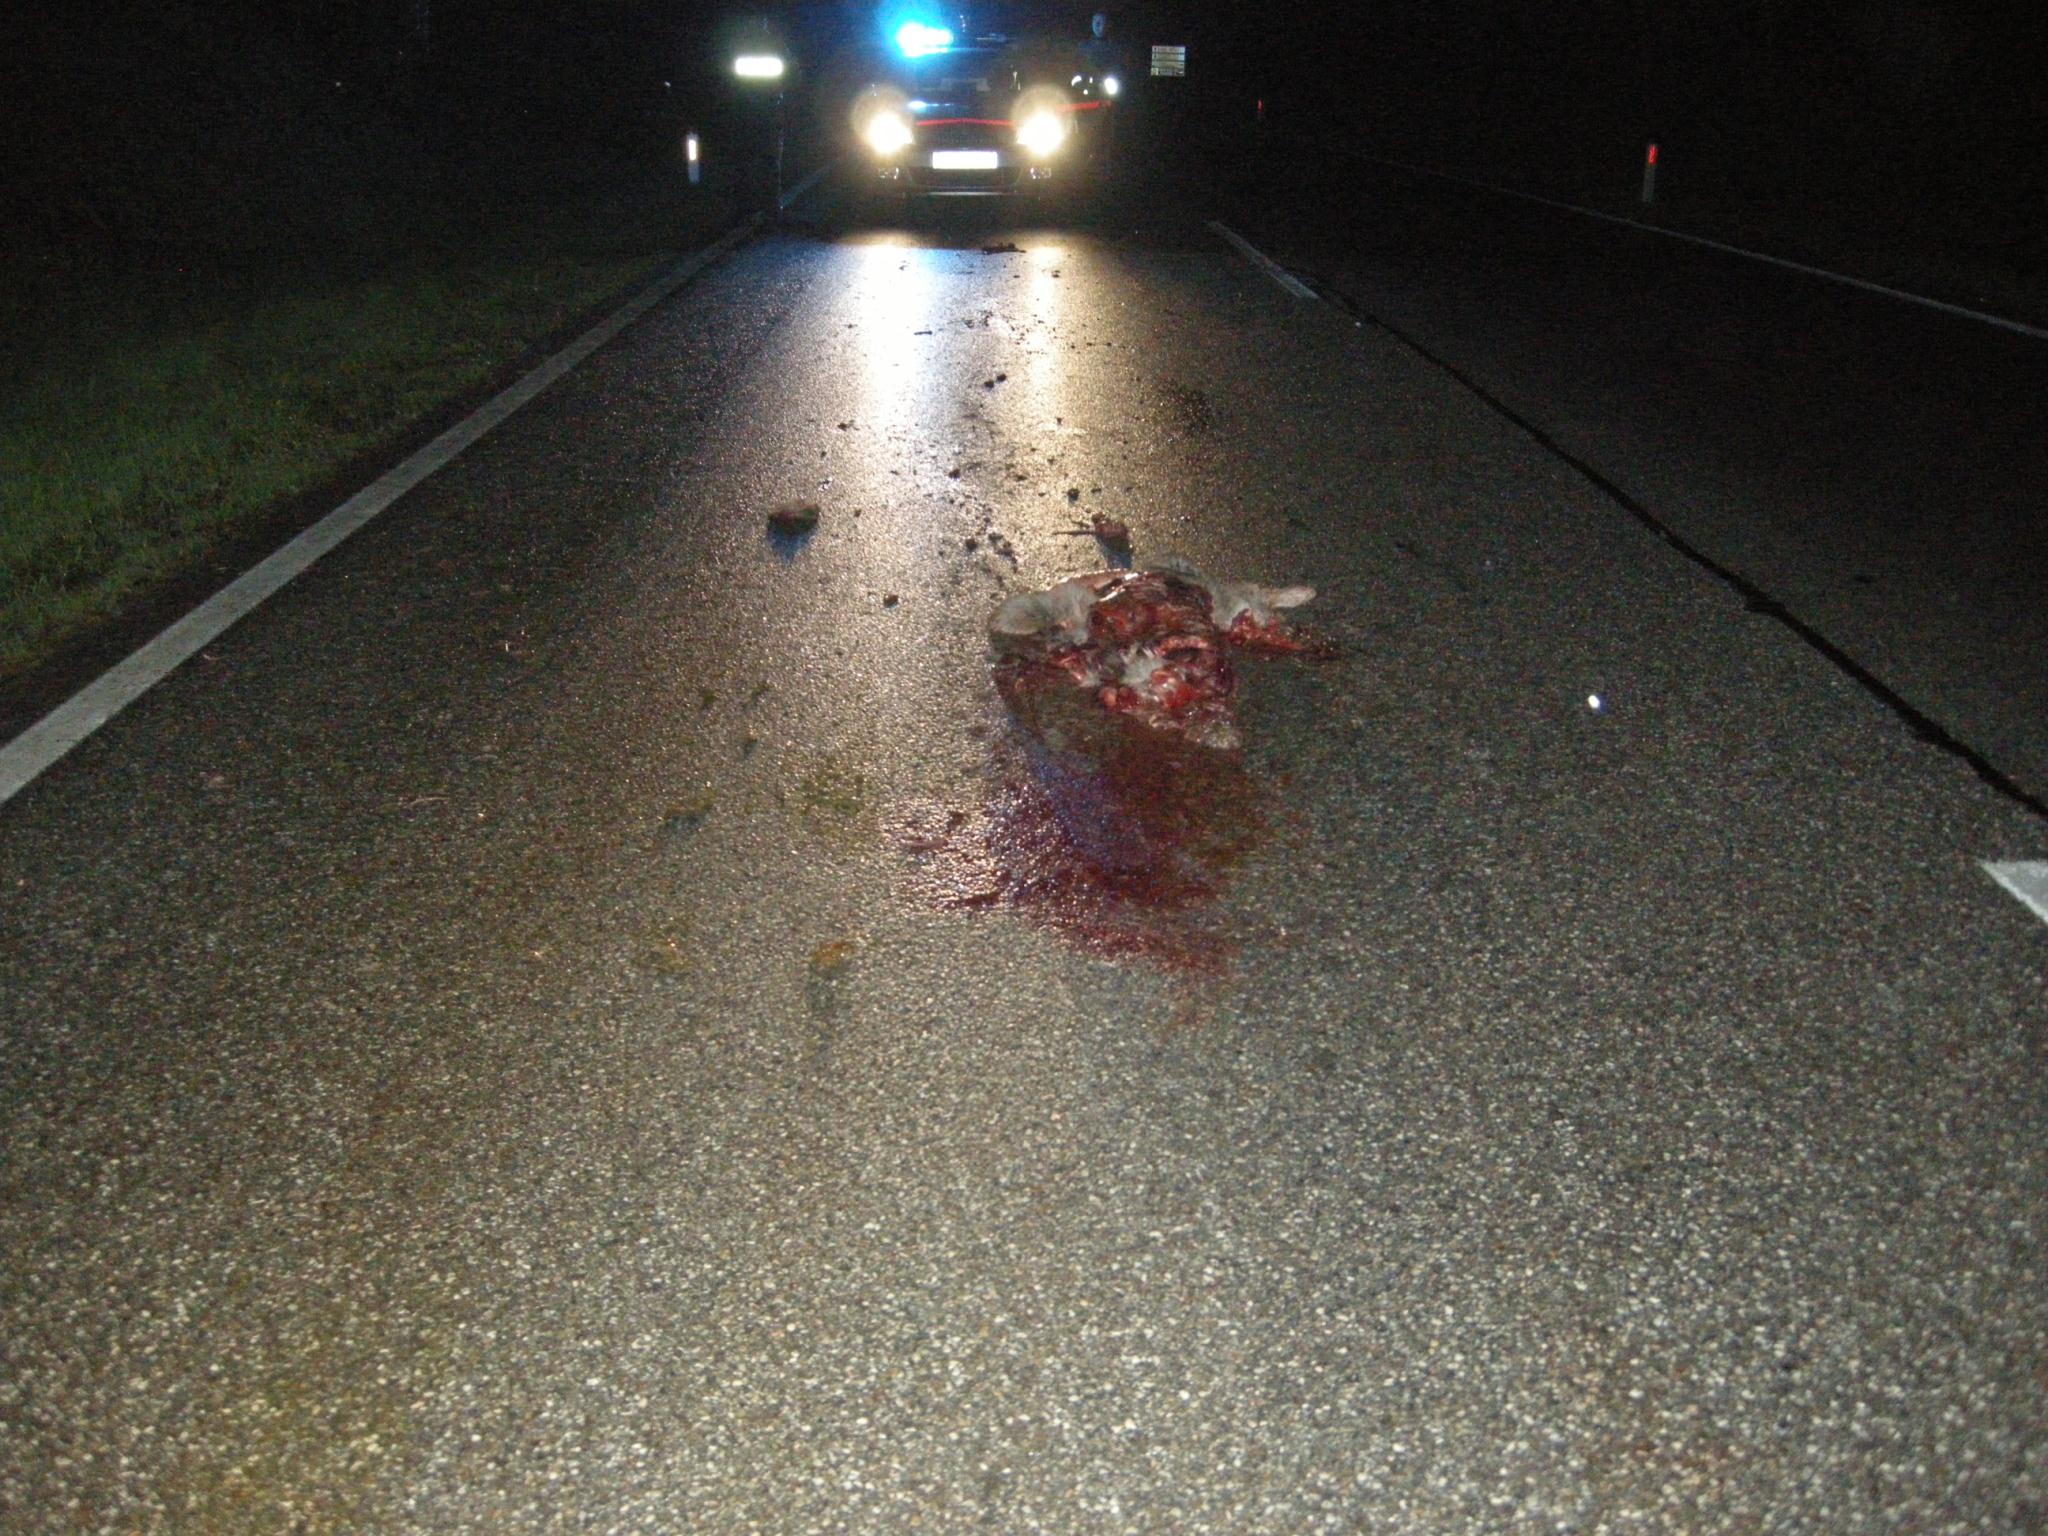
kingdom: Animalia
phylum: Chordata
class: Mammalia
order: Artiodactyla
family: Cervidae
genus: Capreolus
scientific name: Capreolus capreolus
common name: Western roe deer
